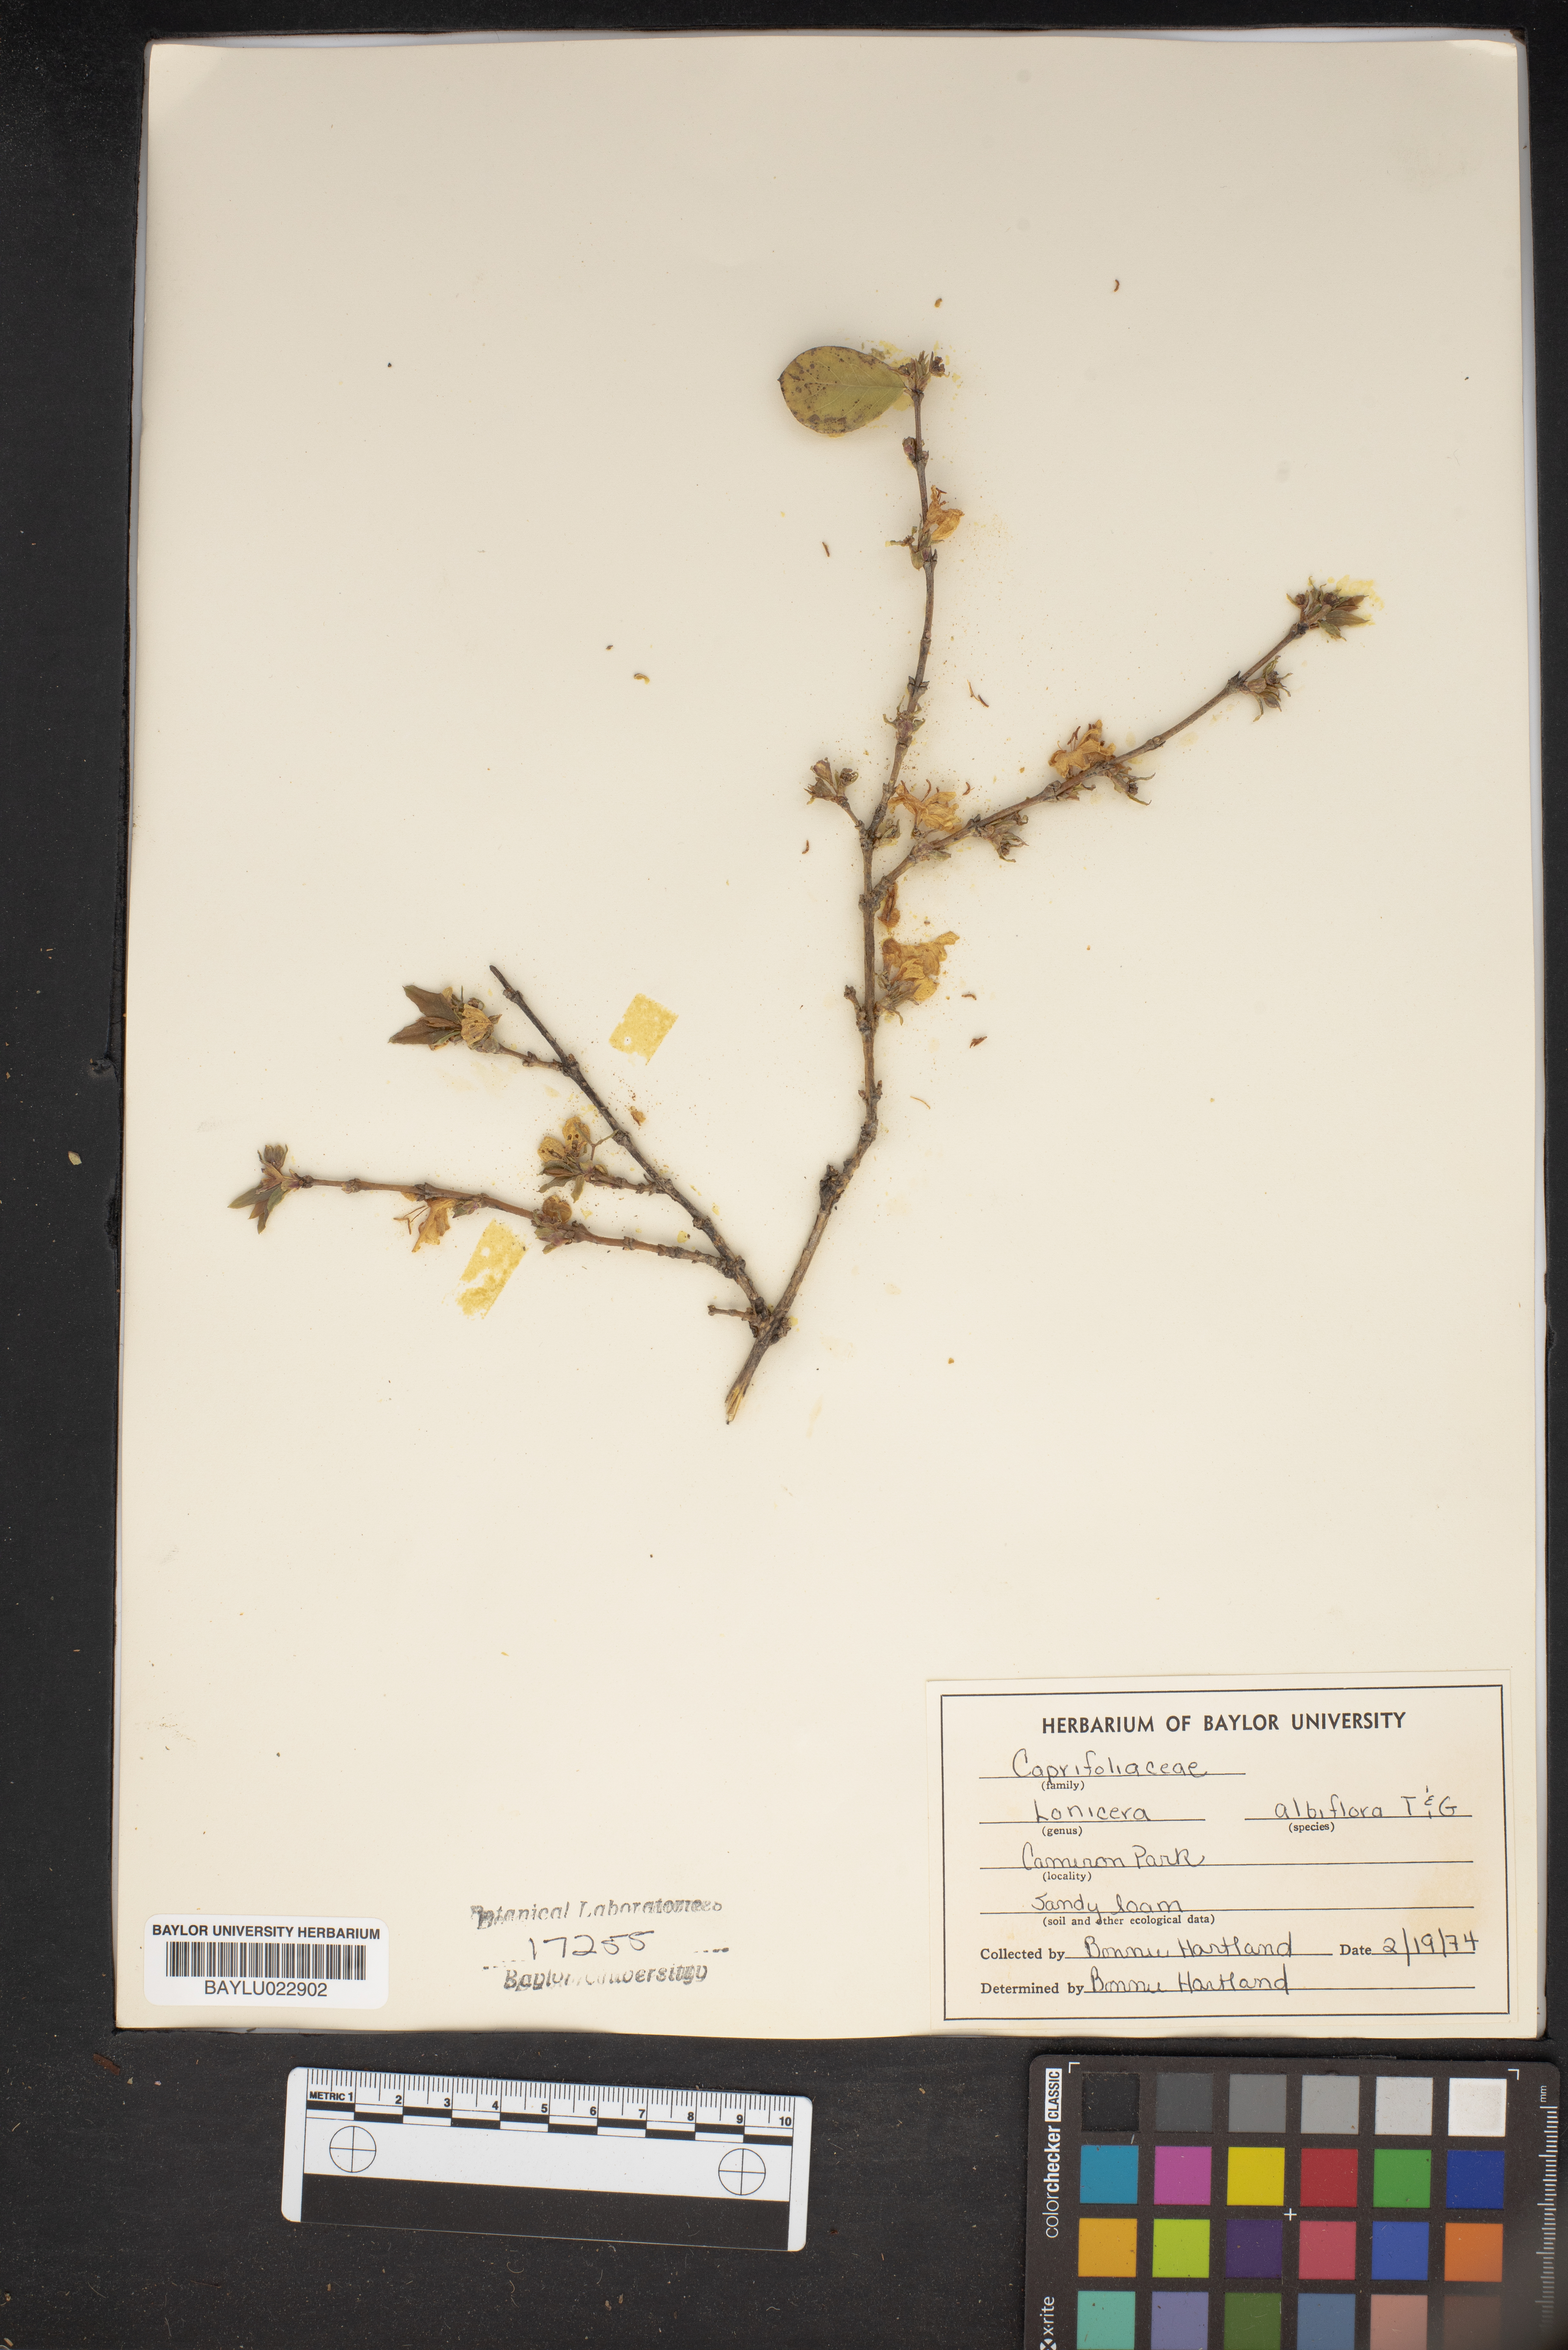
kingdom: Plantae
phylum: Tracheophyta
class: Magnoliopsida
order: Dipsacales
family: Caprifoliaceae
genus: Lonicera
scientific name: Lonicera albiflora
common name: White honeysuckle
